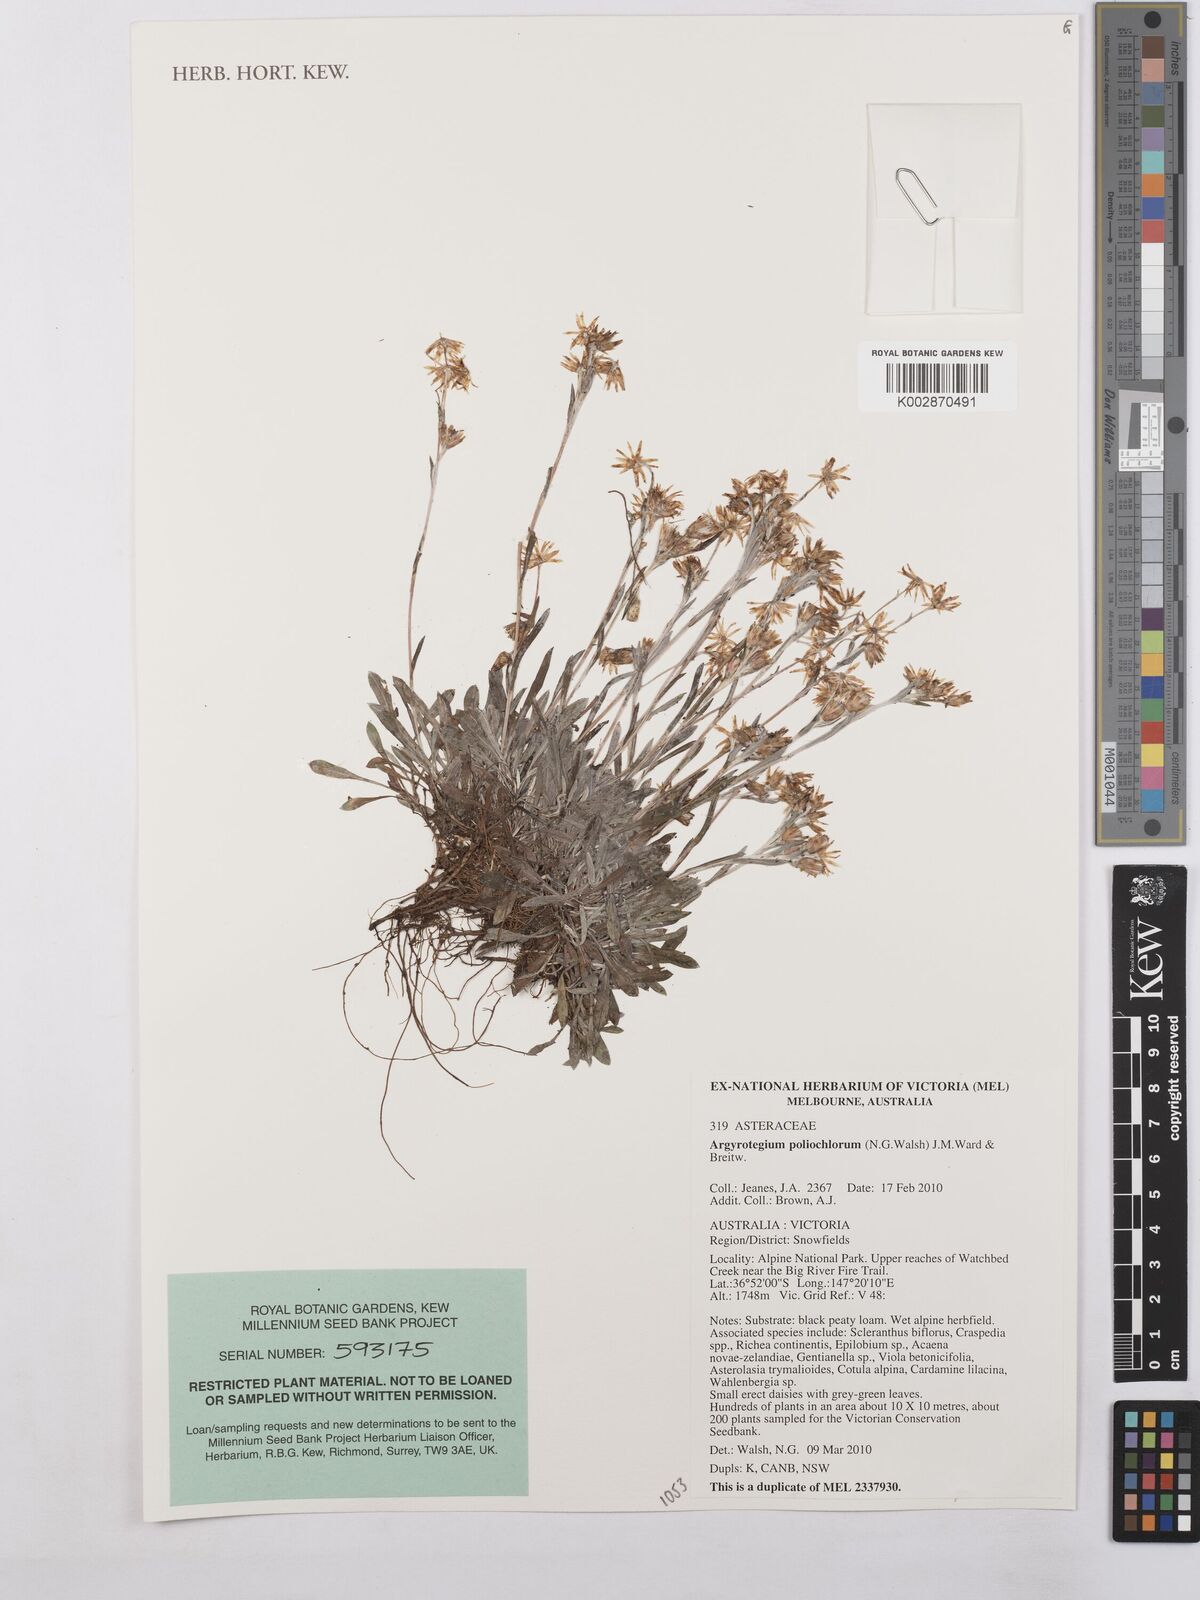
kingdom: Plantae
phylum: Tracheophyta
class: Magnoliopsida
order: Asterales
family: Asteraceae
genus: Argyrotegium
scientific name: Argyrotegium poliochlorum
